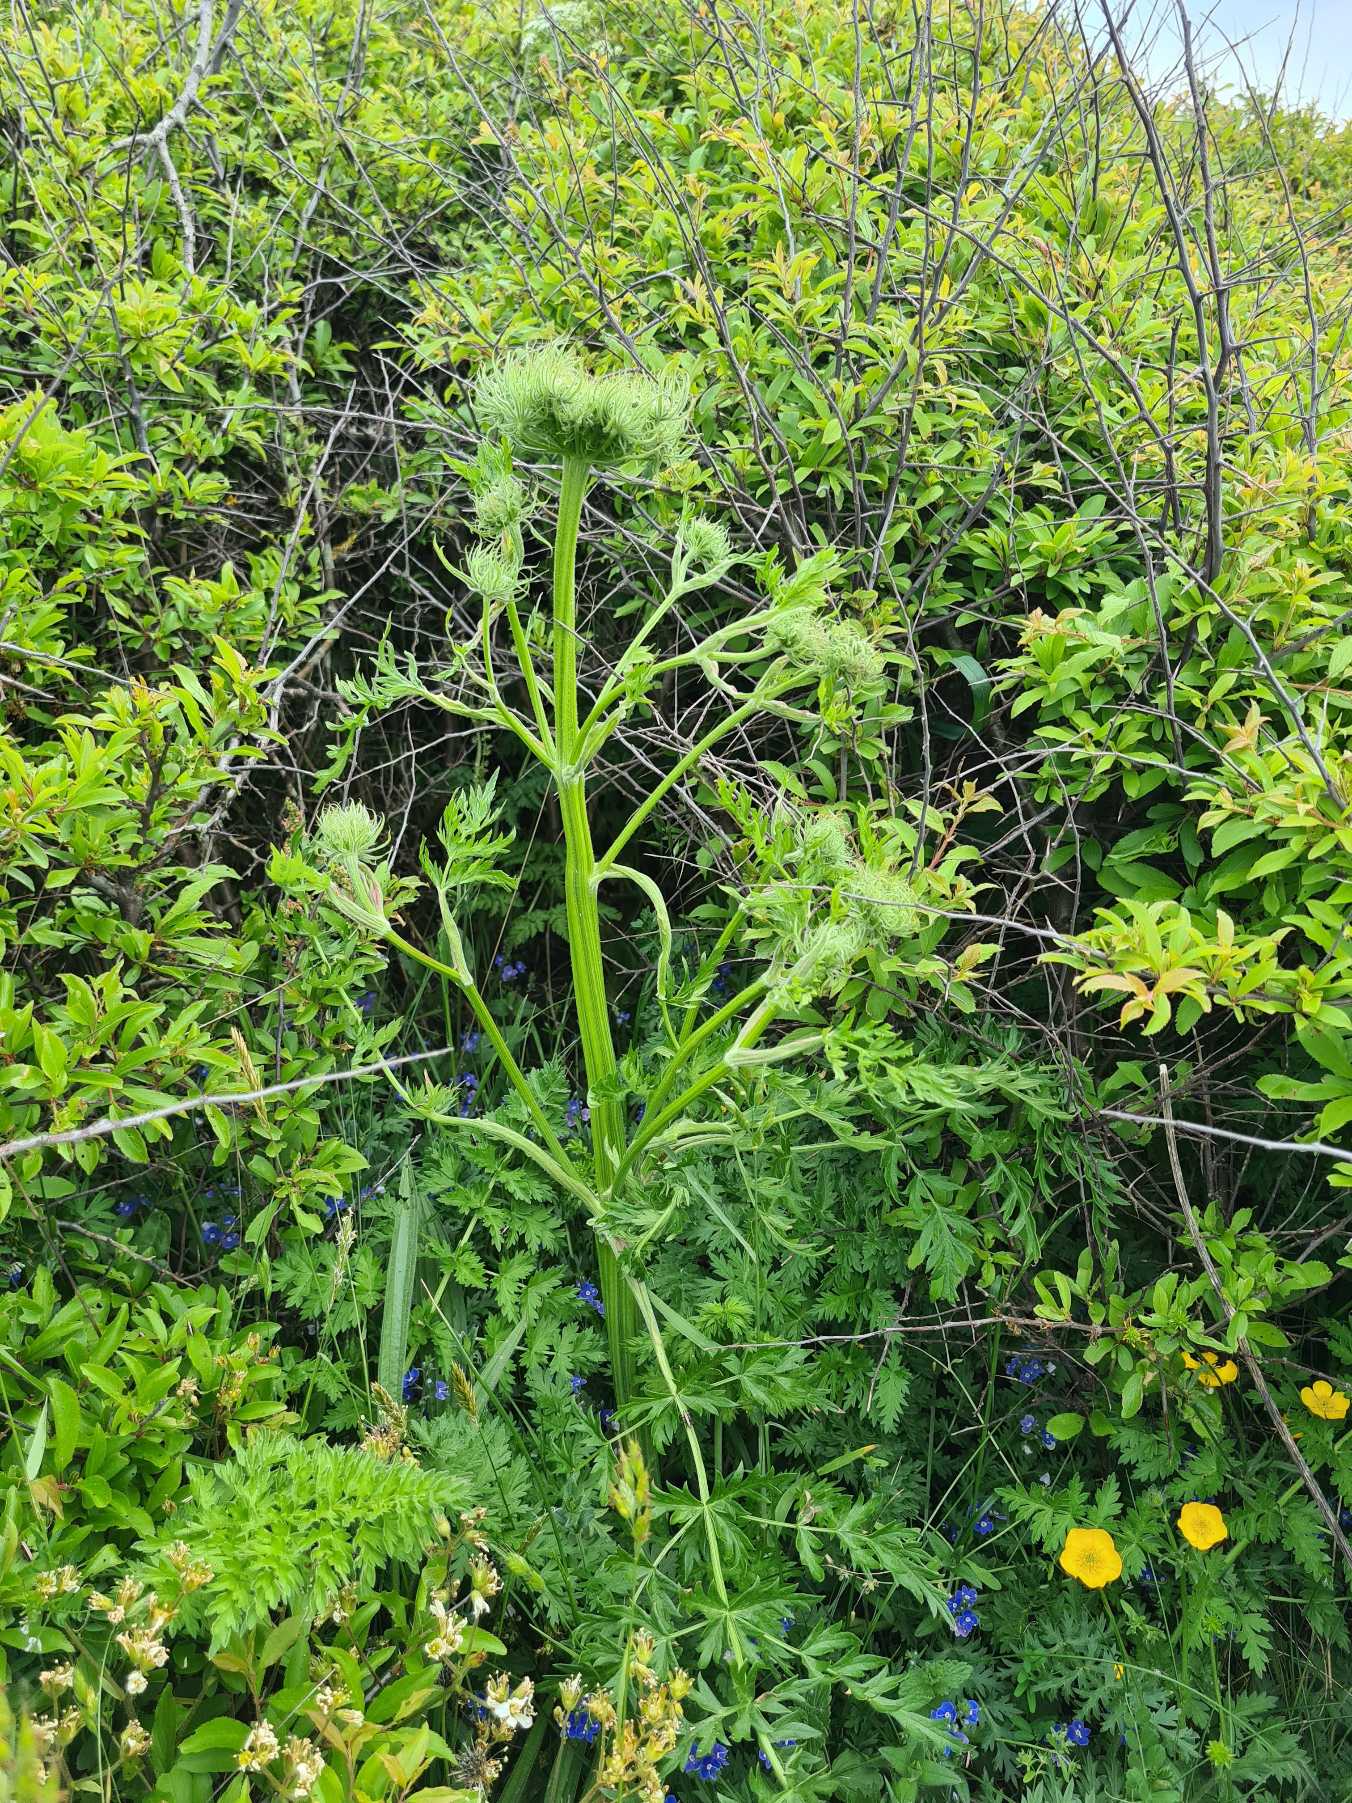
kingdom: Plantae
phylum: Tracheophyta
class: Magnoliopsida
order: Apiales
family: Apiaceae
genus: Seseli
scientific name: Seseli libanotis
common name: Hjorterod
